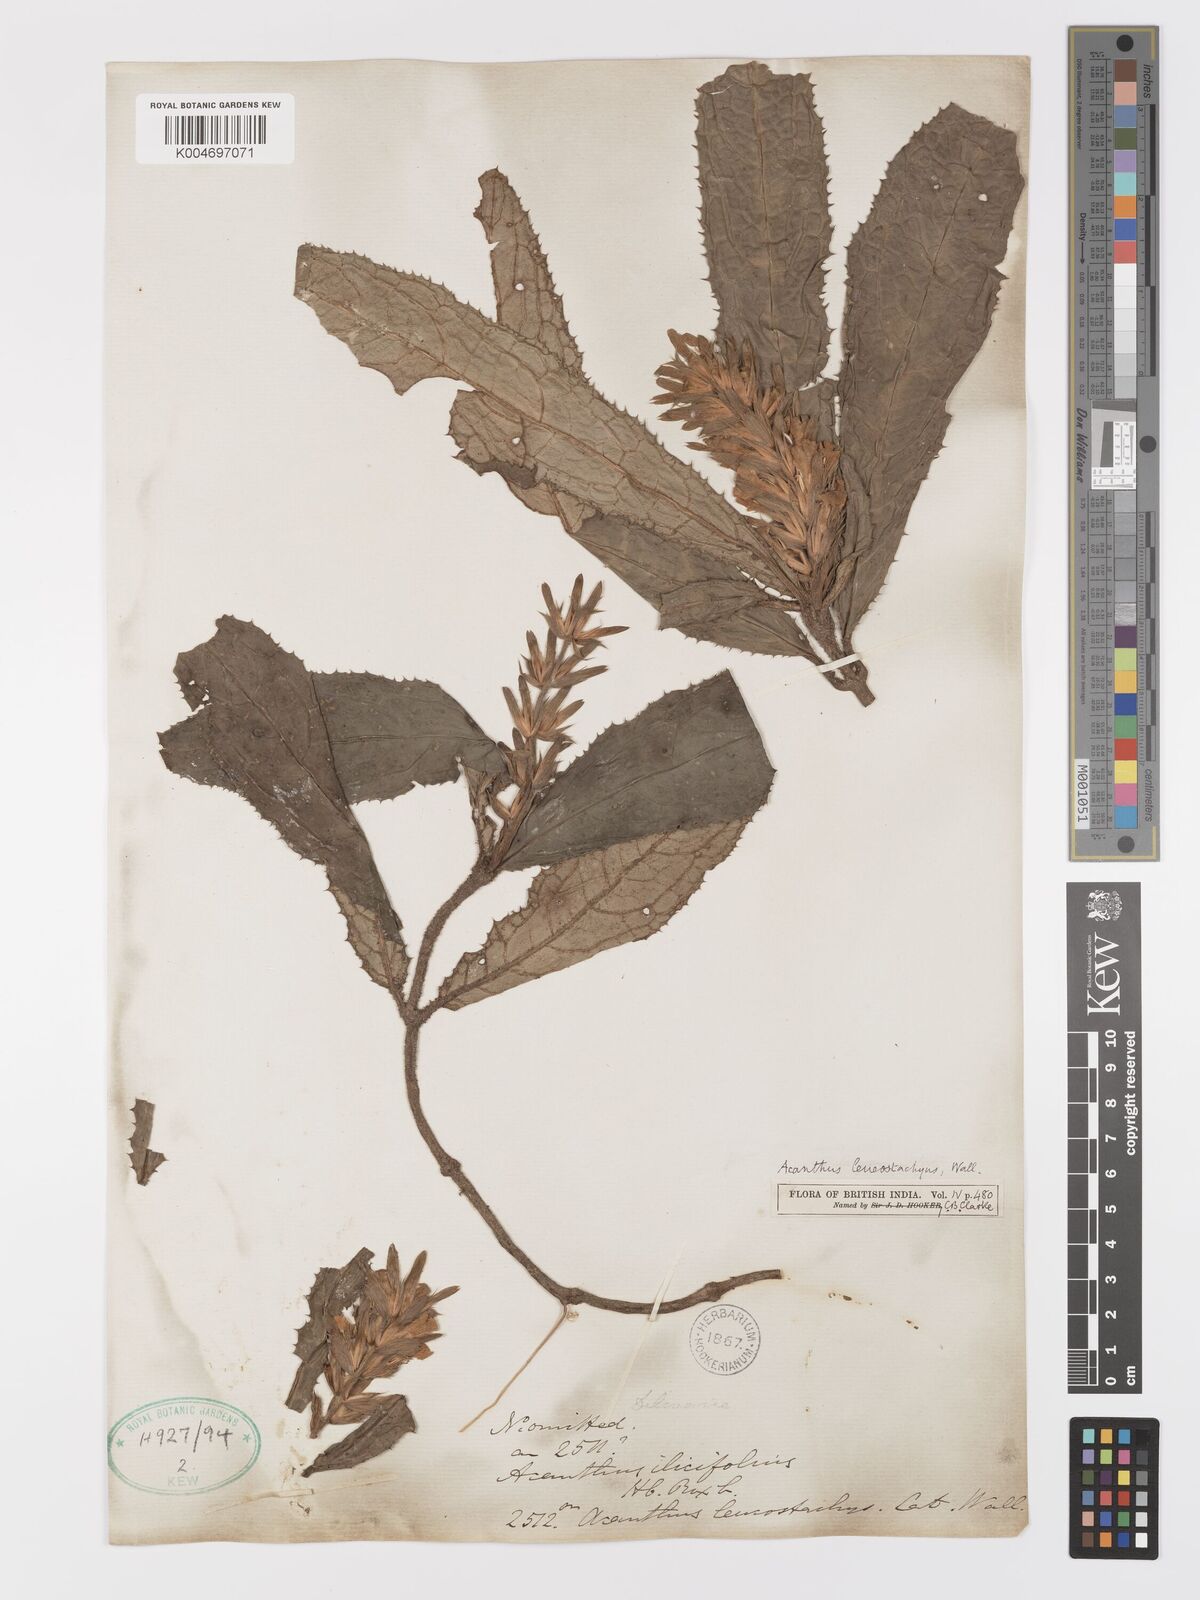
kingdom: Plantae
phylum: Tracheophyta
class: Magnoliopsida
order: Lamiales
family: Acanthaceae
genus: Acanthus
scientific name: Acanthus leucostachyus
